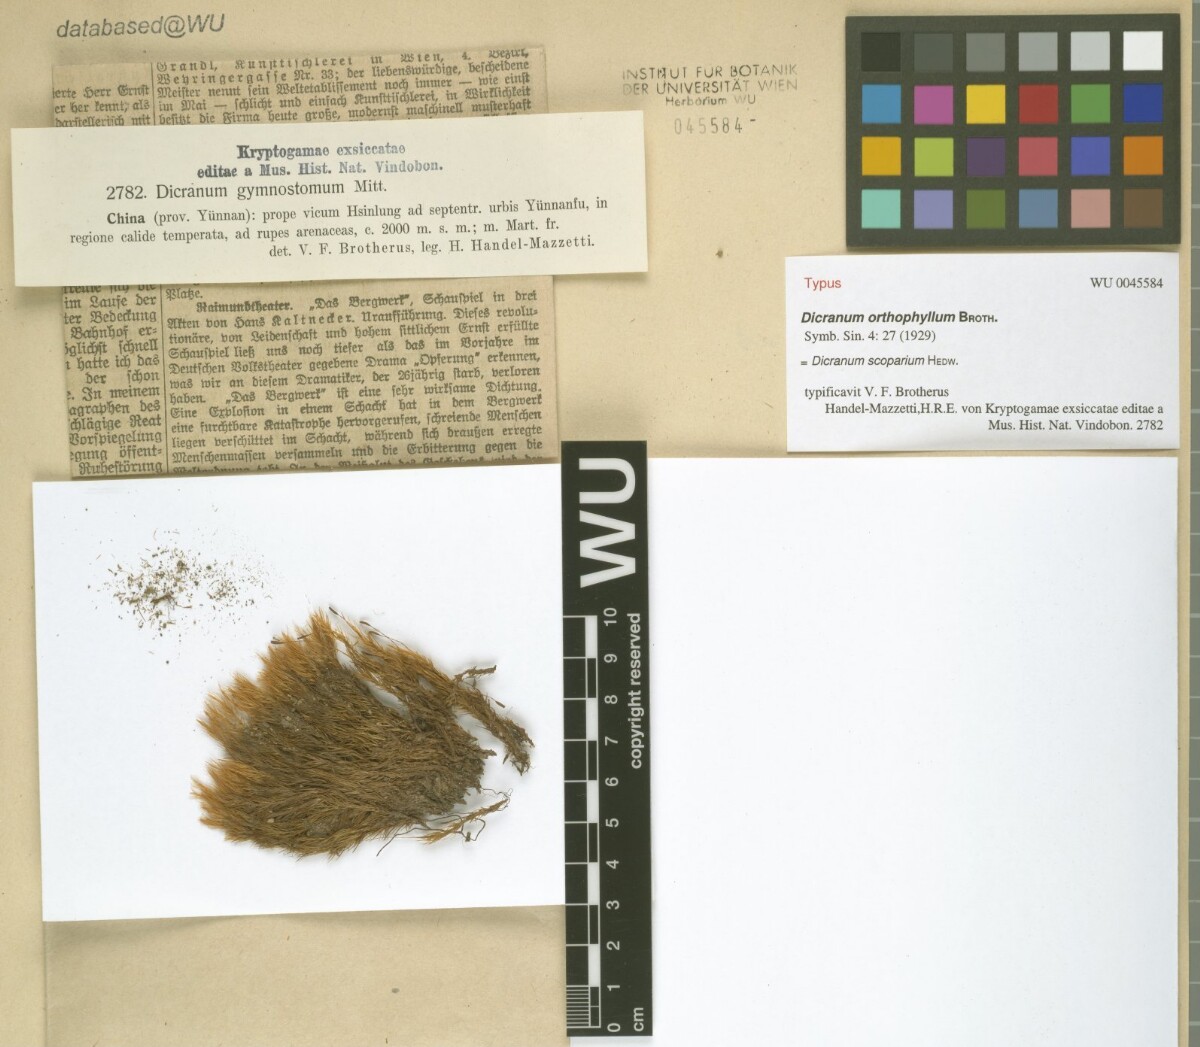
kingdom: Plantae
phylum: Bryophyta
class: Bryopsida
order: Dicranales
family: Dicranaceae
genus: Dicranum
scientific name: Dicranum scoparium
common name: Broom fork-moss
